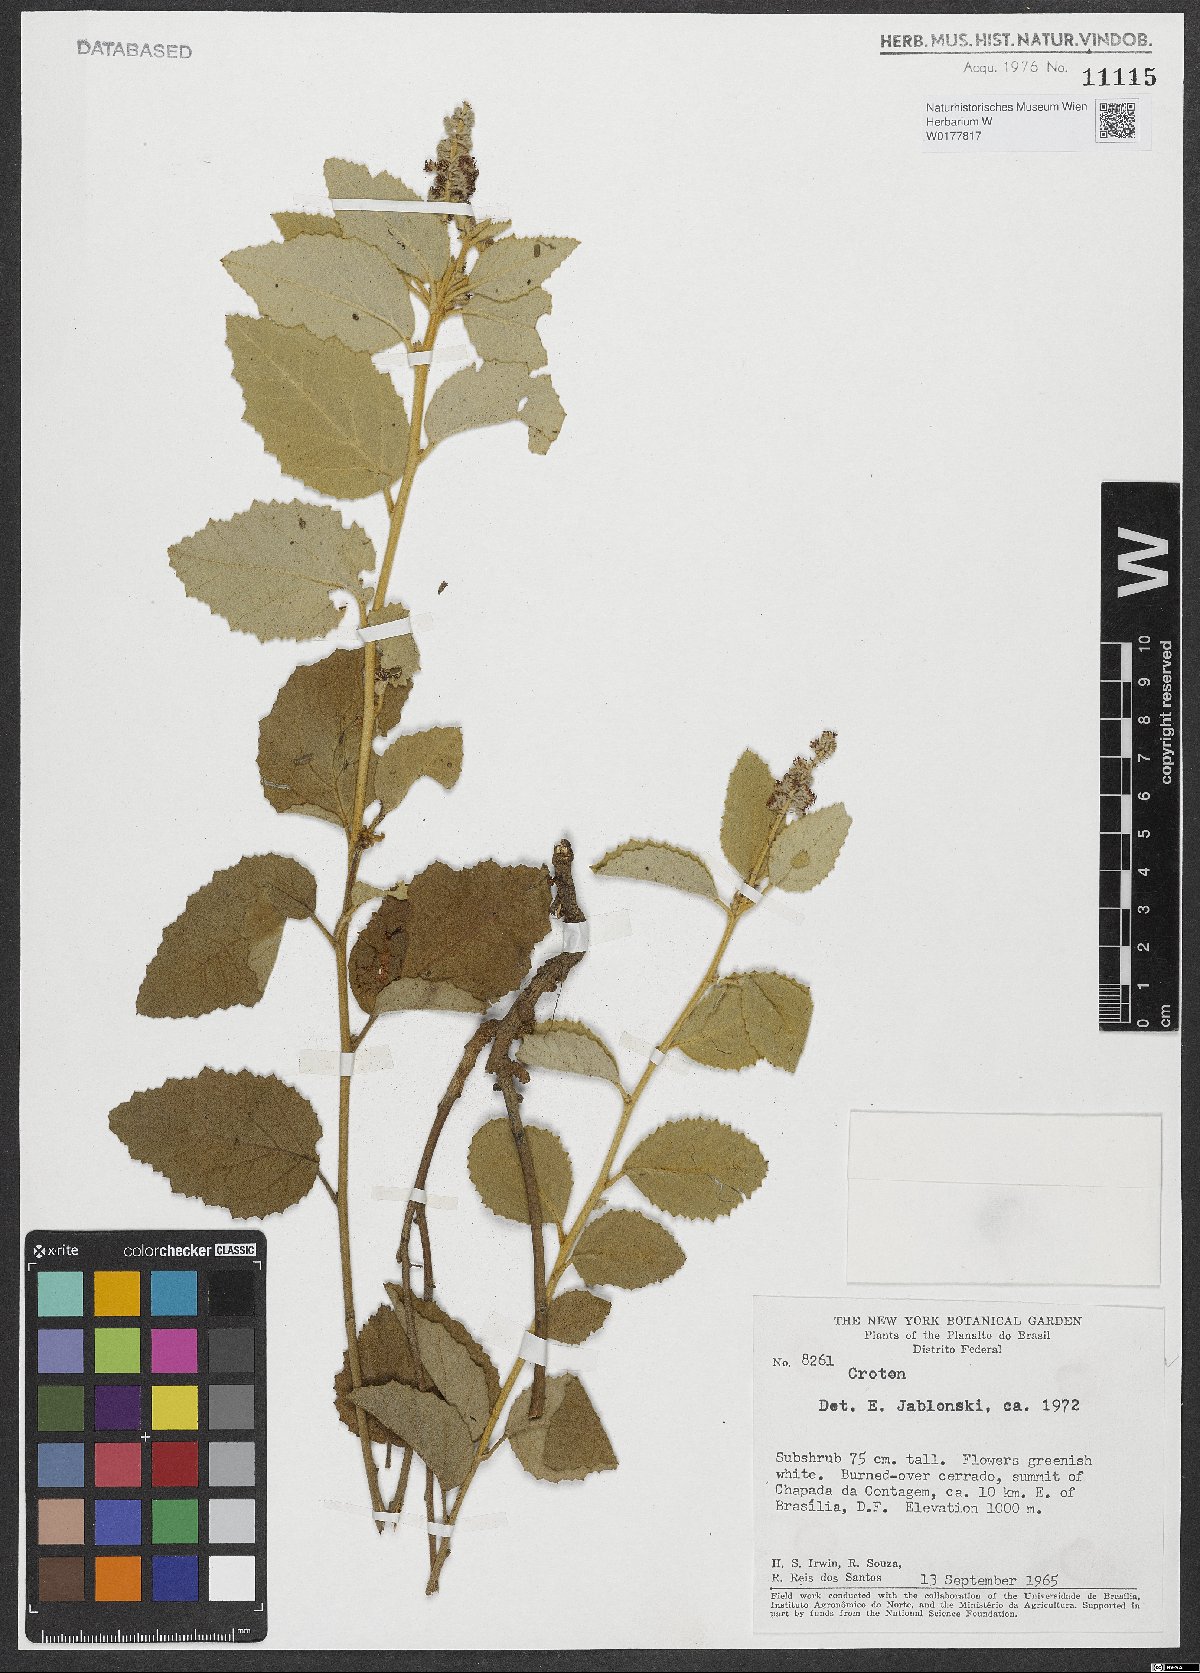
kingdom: Plantae
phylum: Tracheophyta
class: Magnoliopsida
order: Malpighiales
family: Euphorbiaceae
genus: Croton
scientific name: Croton
